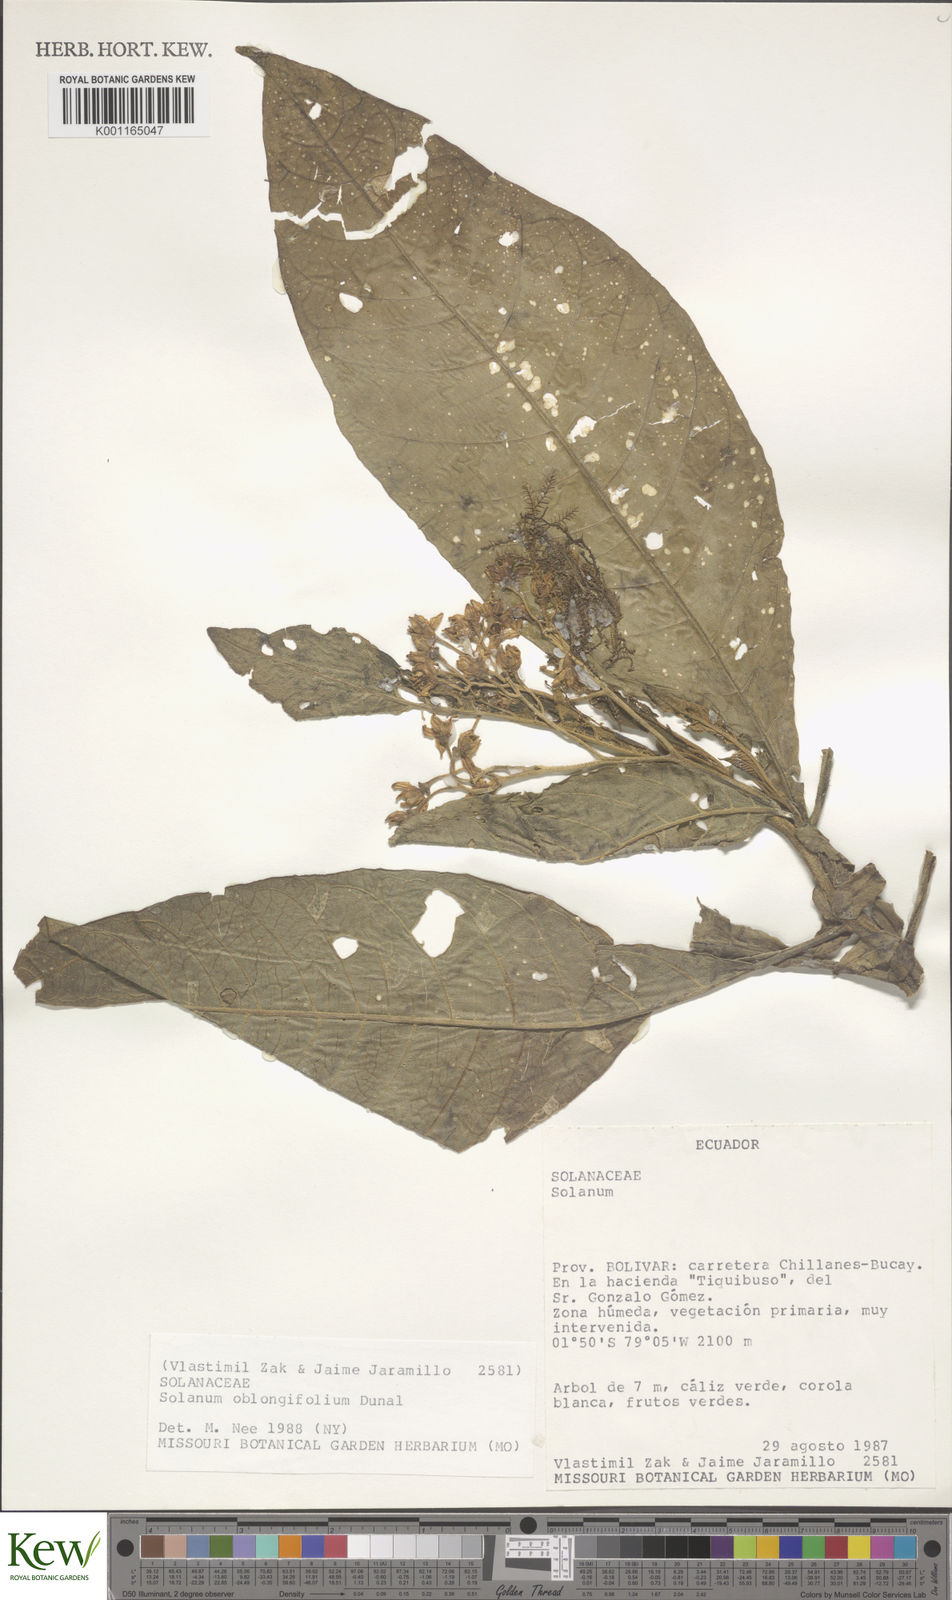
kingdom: Plantae
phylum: Tracheophyta
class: Magnoliopsida
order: Solanales
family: Solanaceae
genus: Solanum
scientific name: Solanum oblongifolium
